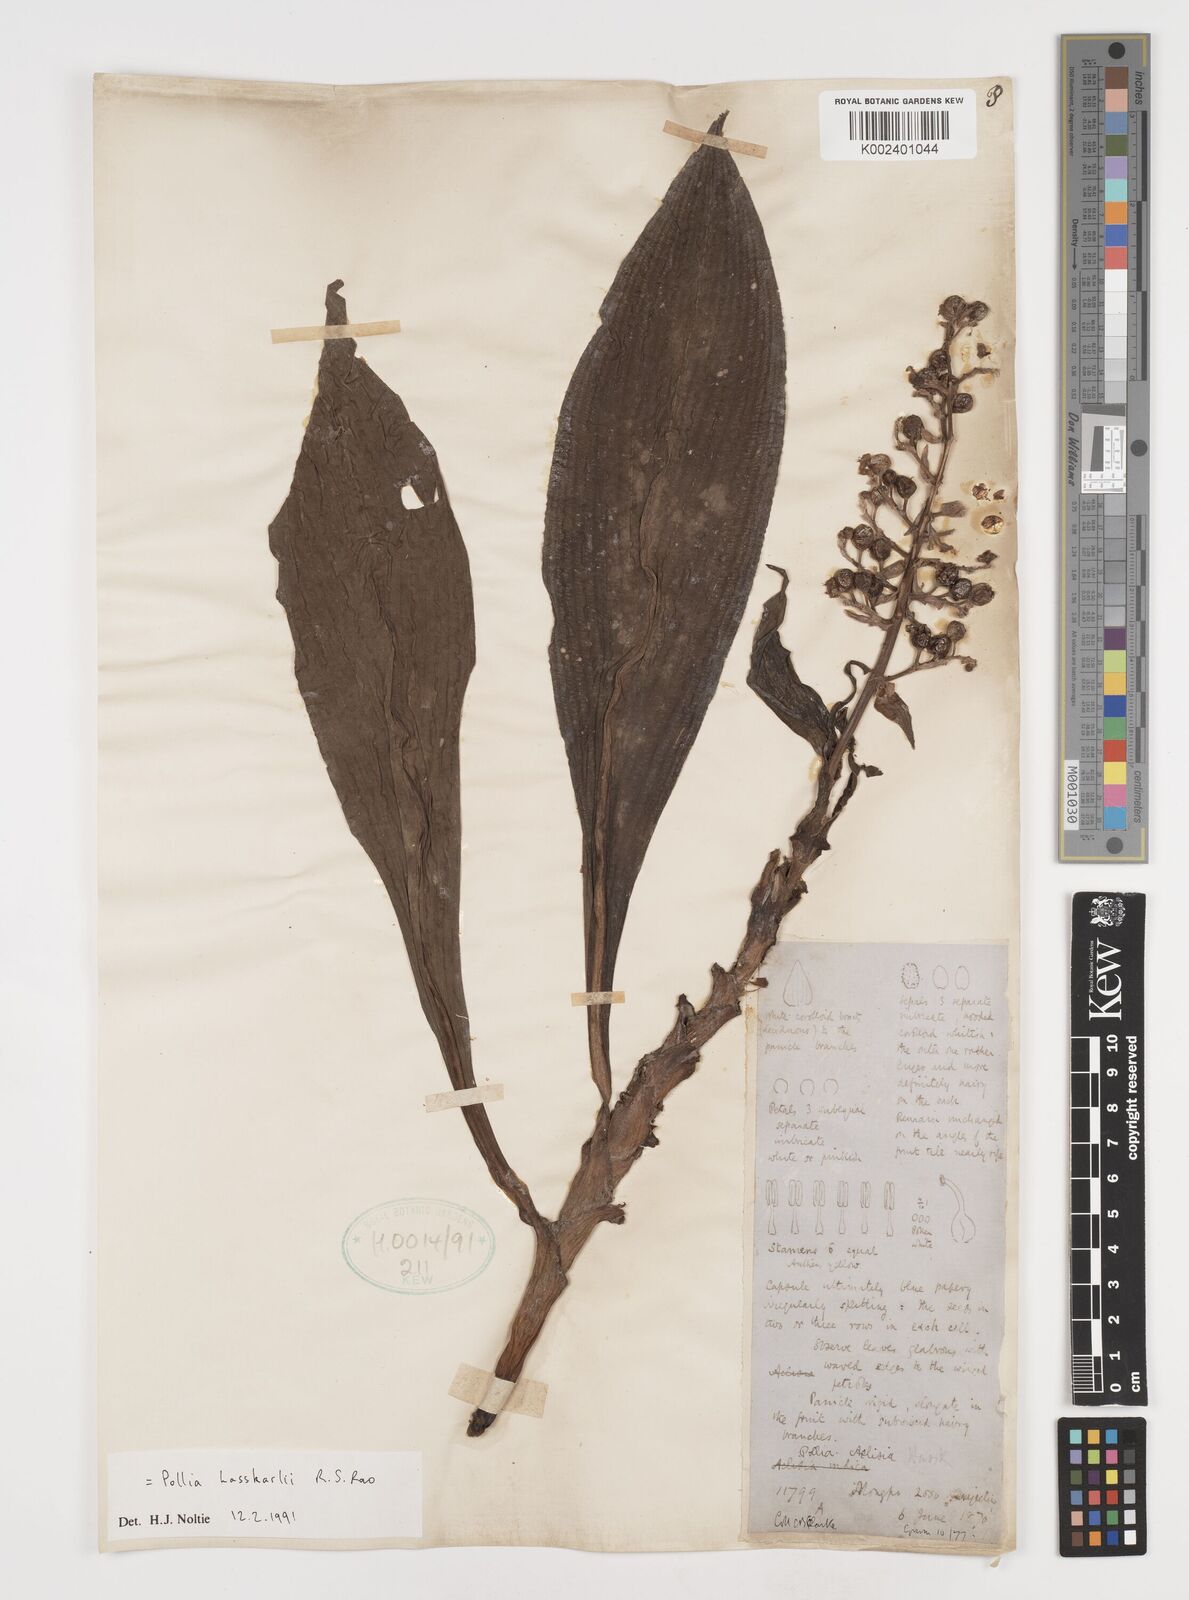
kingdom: Plantae
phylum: Tracheophyta
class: Liliopsida
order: Commelinales
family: Commelinaceae
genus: Pollia
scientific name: Pollia hasskarlii
